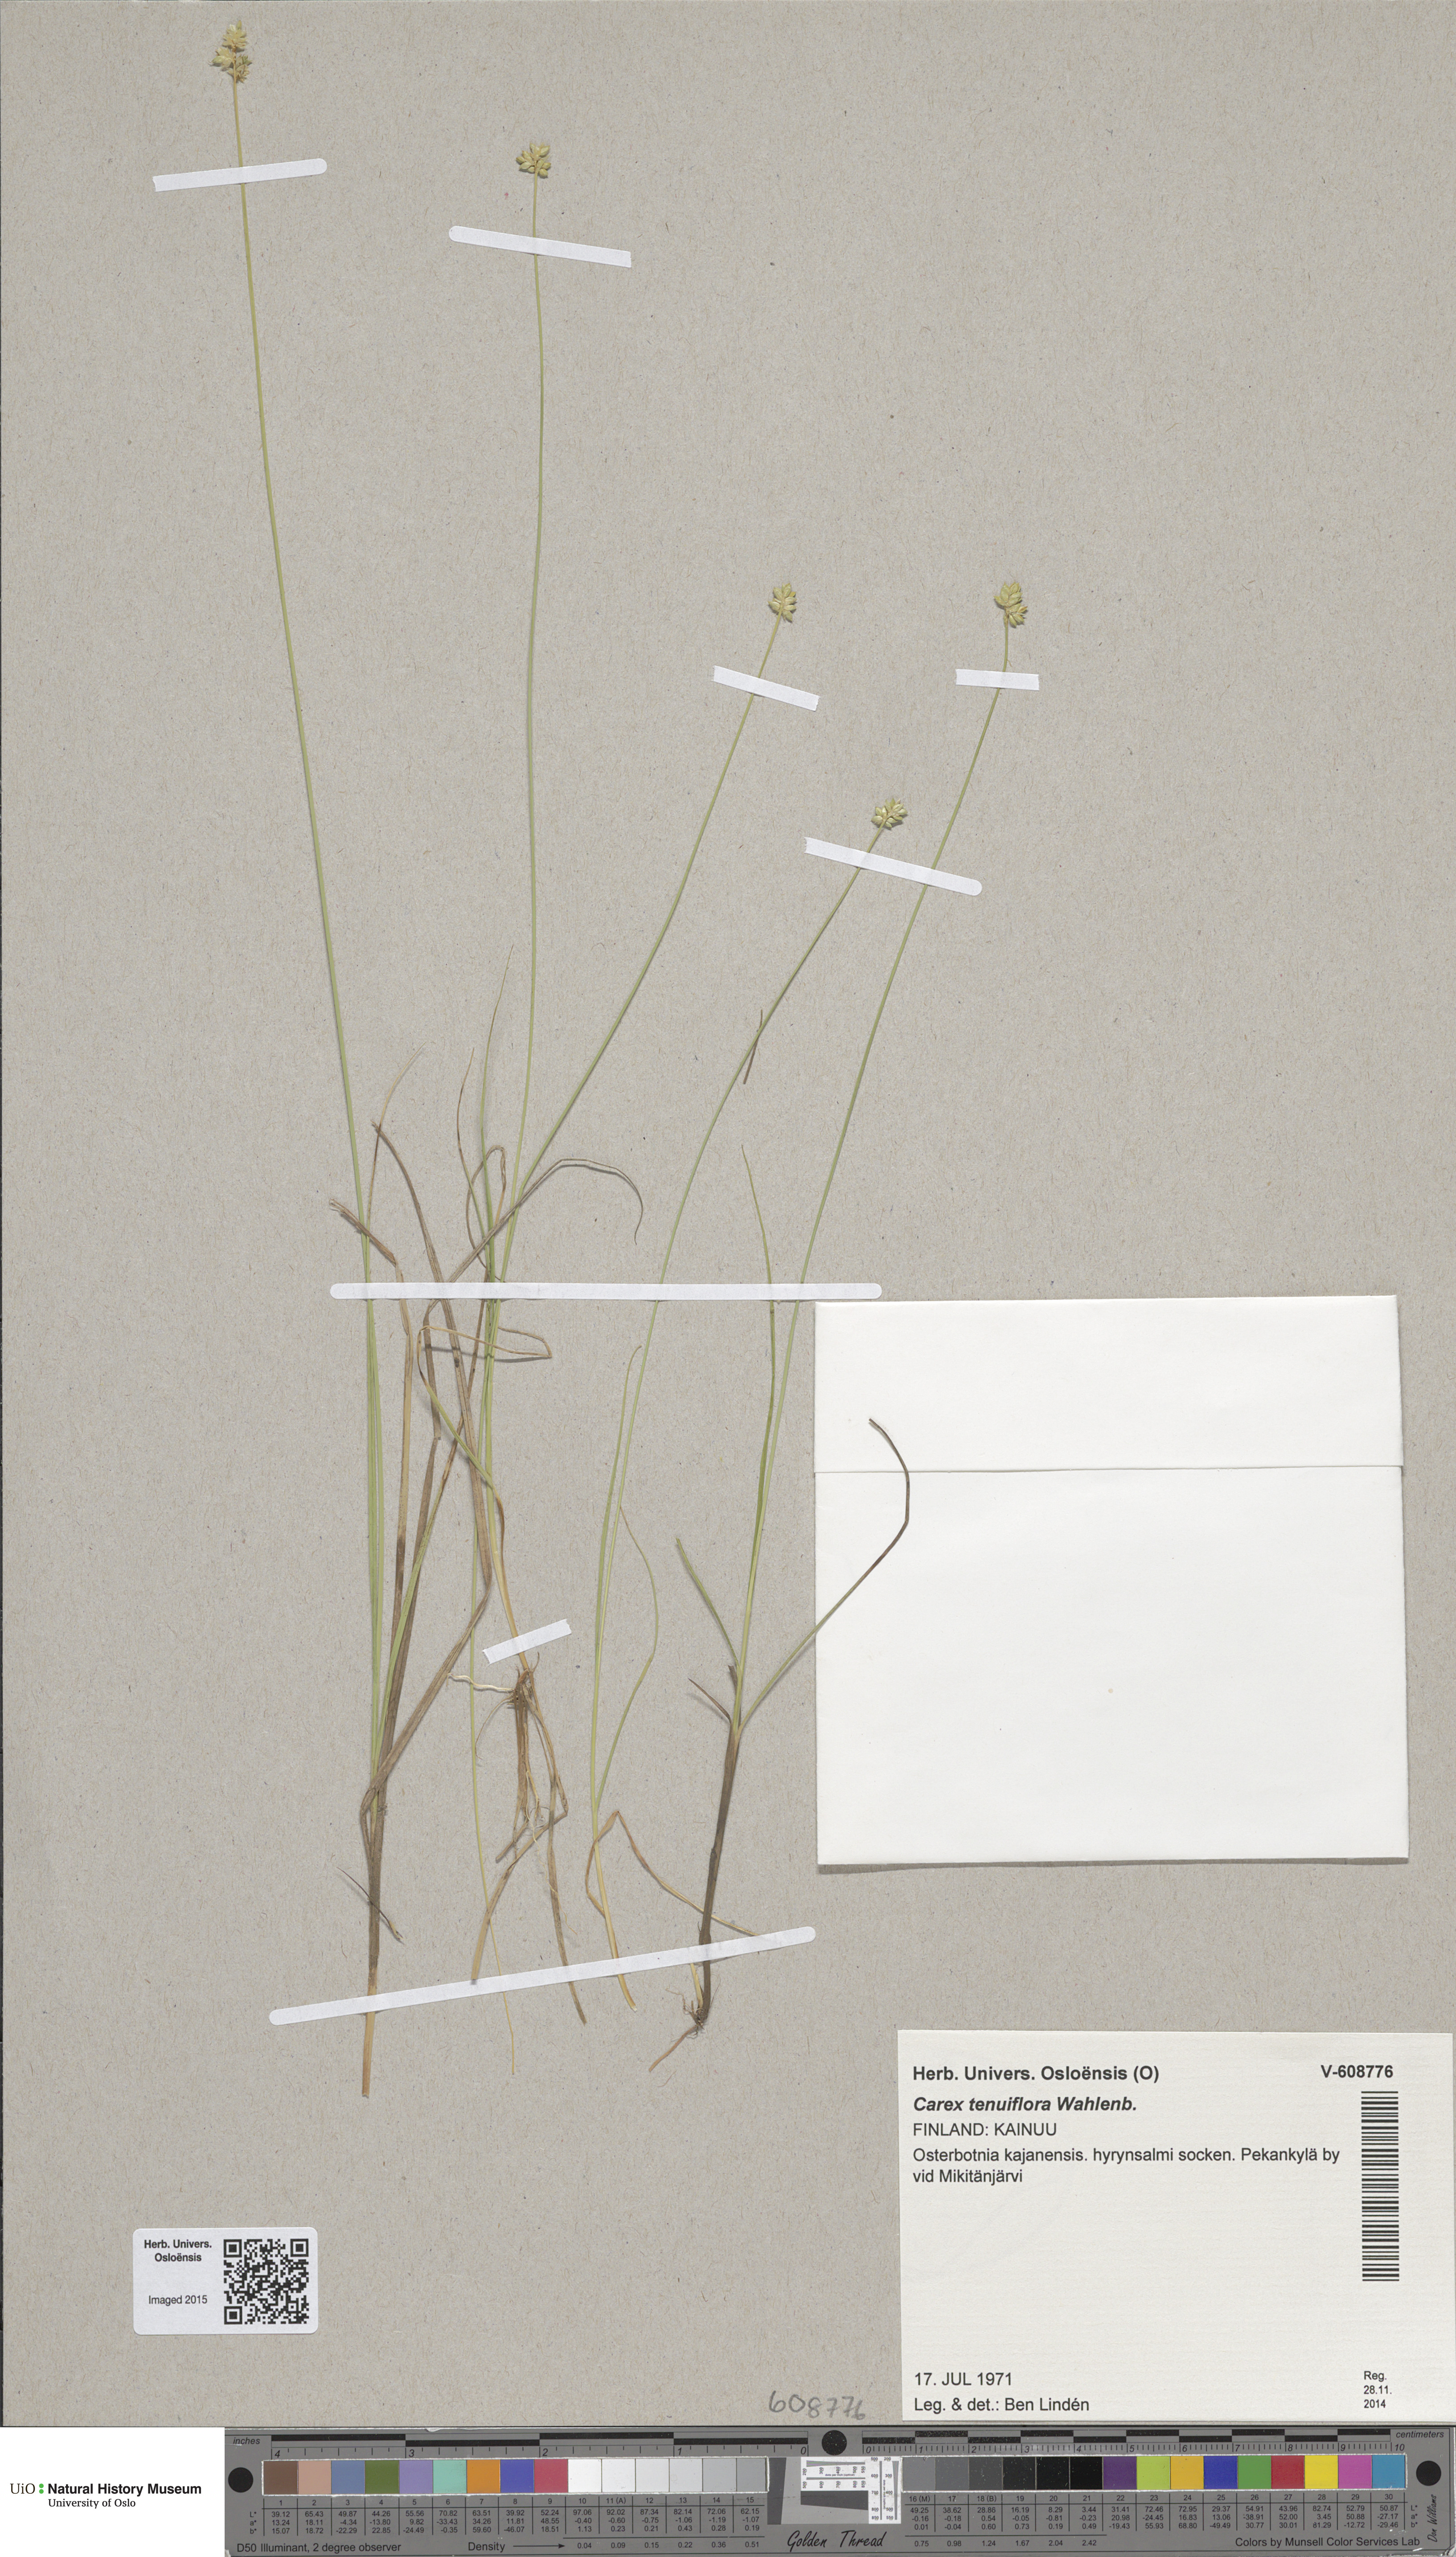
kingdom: Plantae
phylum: Tracheophyta
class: Liliopsida
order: Poales
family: Cyperaceae
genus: Carex
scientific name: Carex tenuiflora
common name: Sparse-flowered sedge
